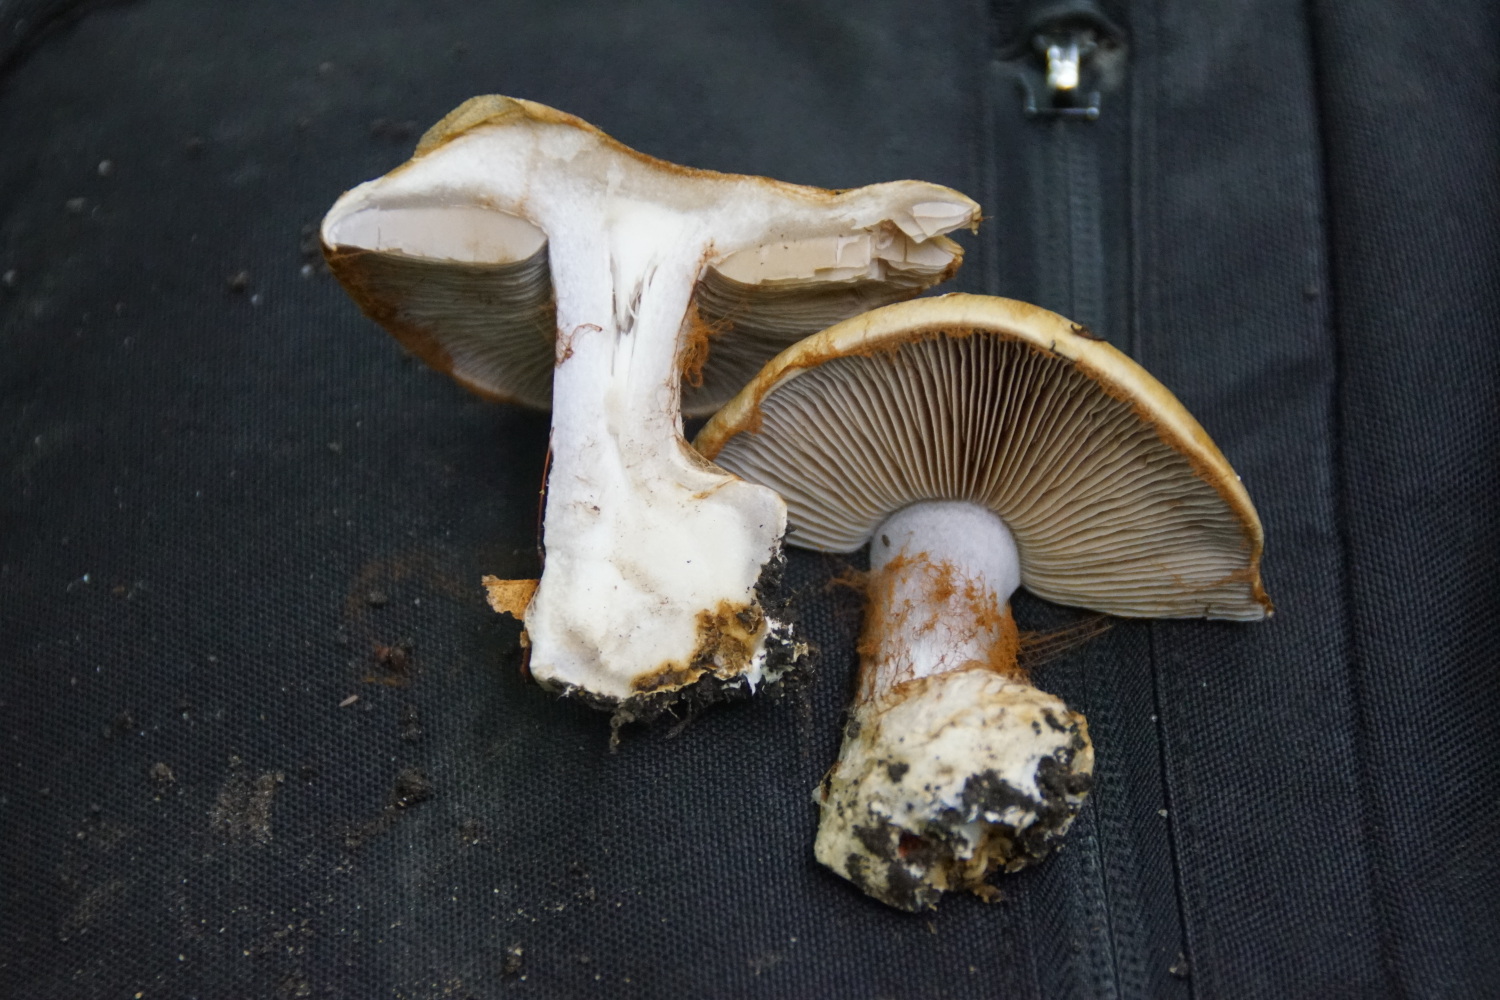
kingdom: Fungi
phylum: Basidiomycota
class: Agaricomycetes
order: Agaricales
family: Cortinariaceae
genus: Cortinarius
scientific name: Cortinarius anserinus
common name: bøge-slørhat
